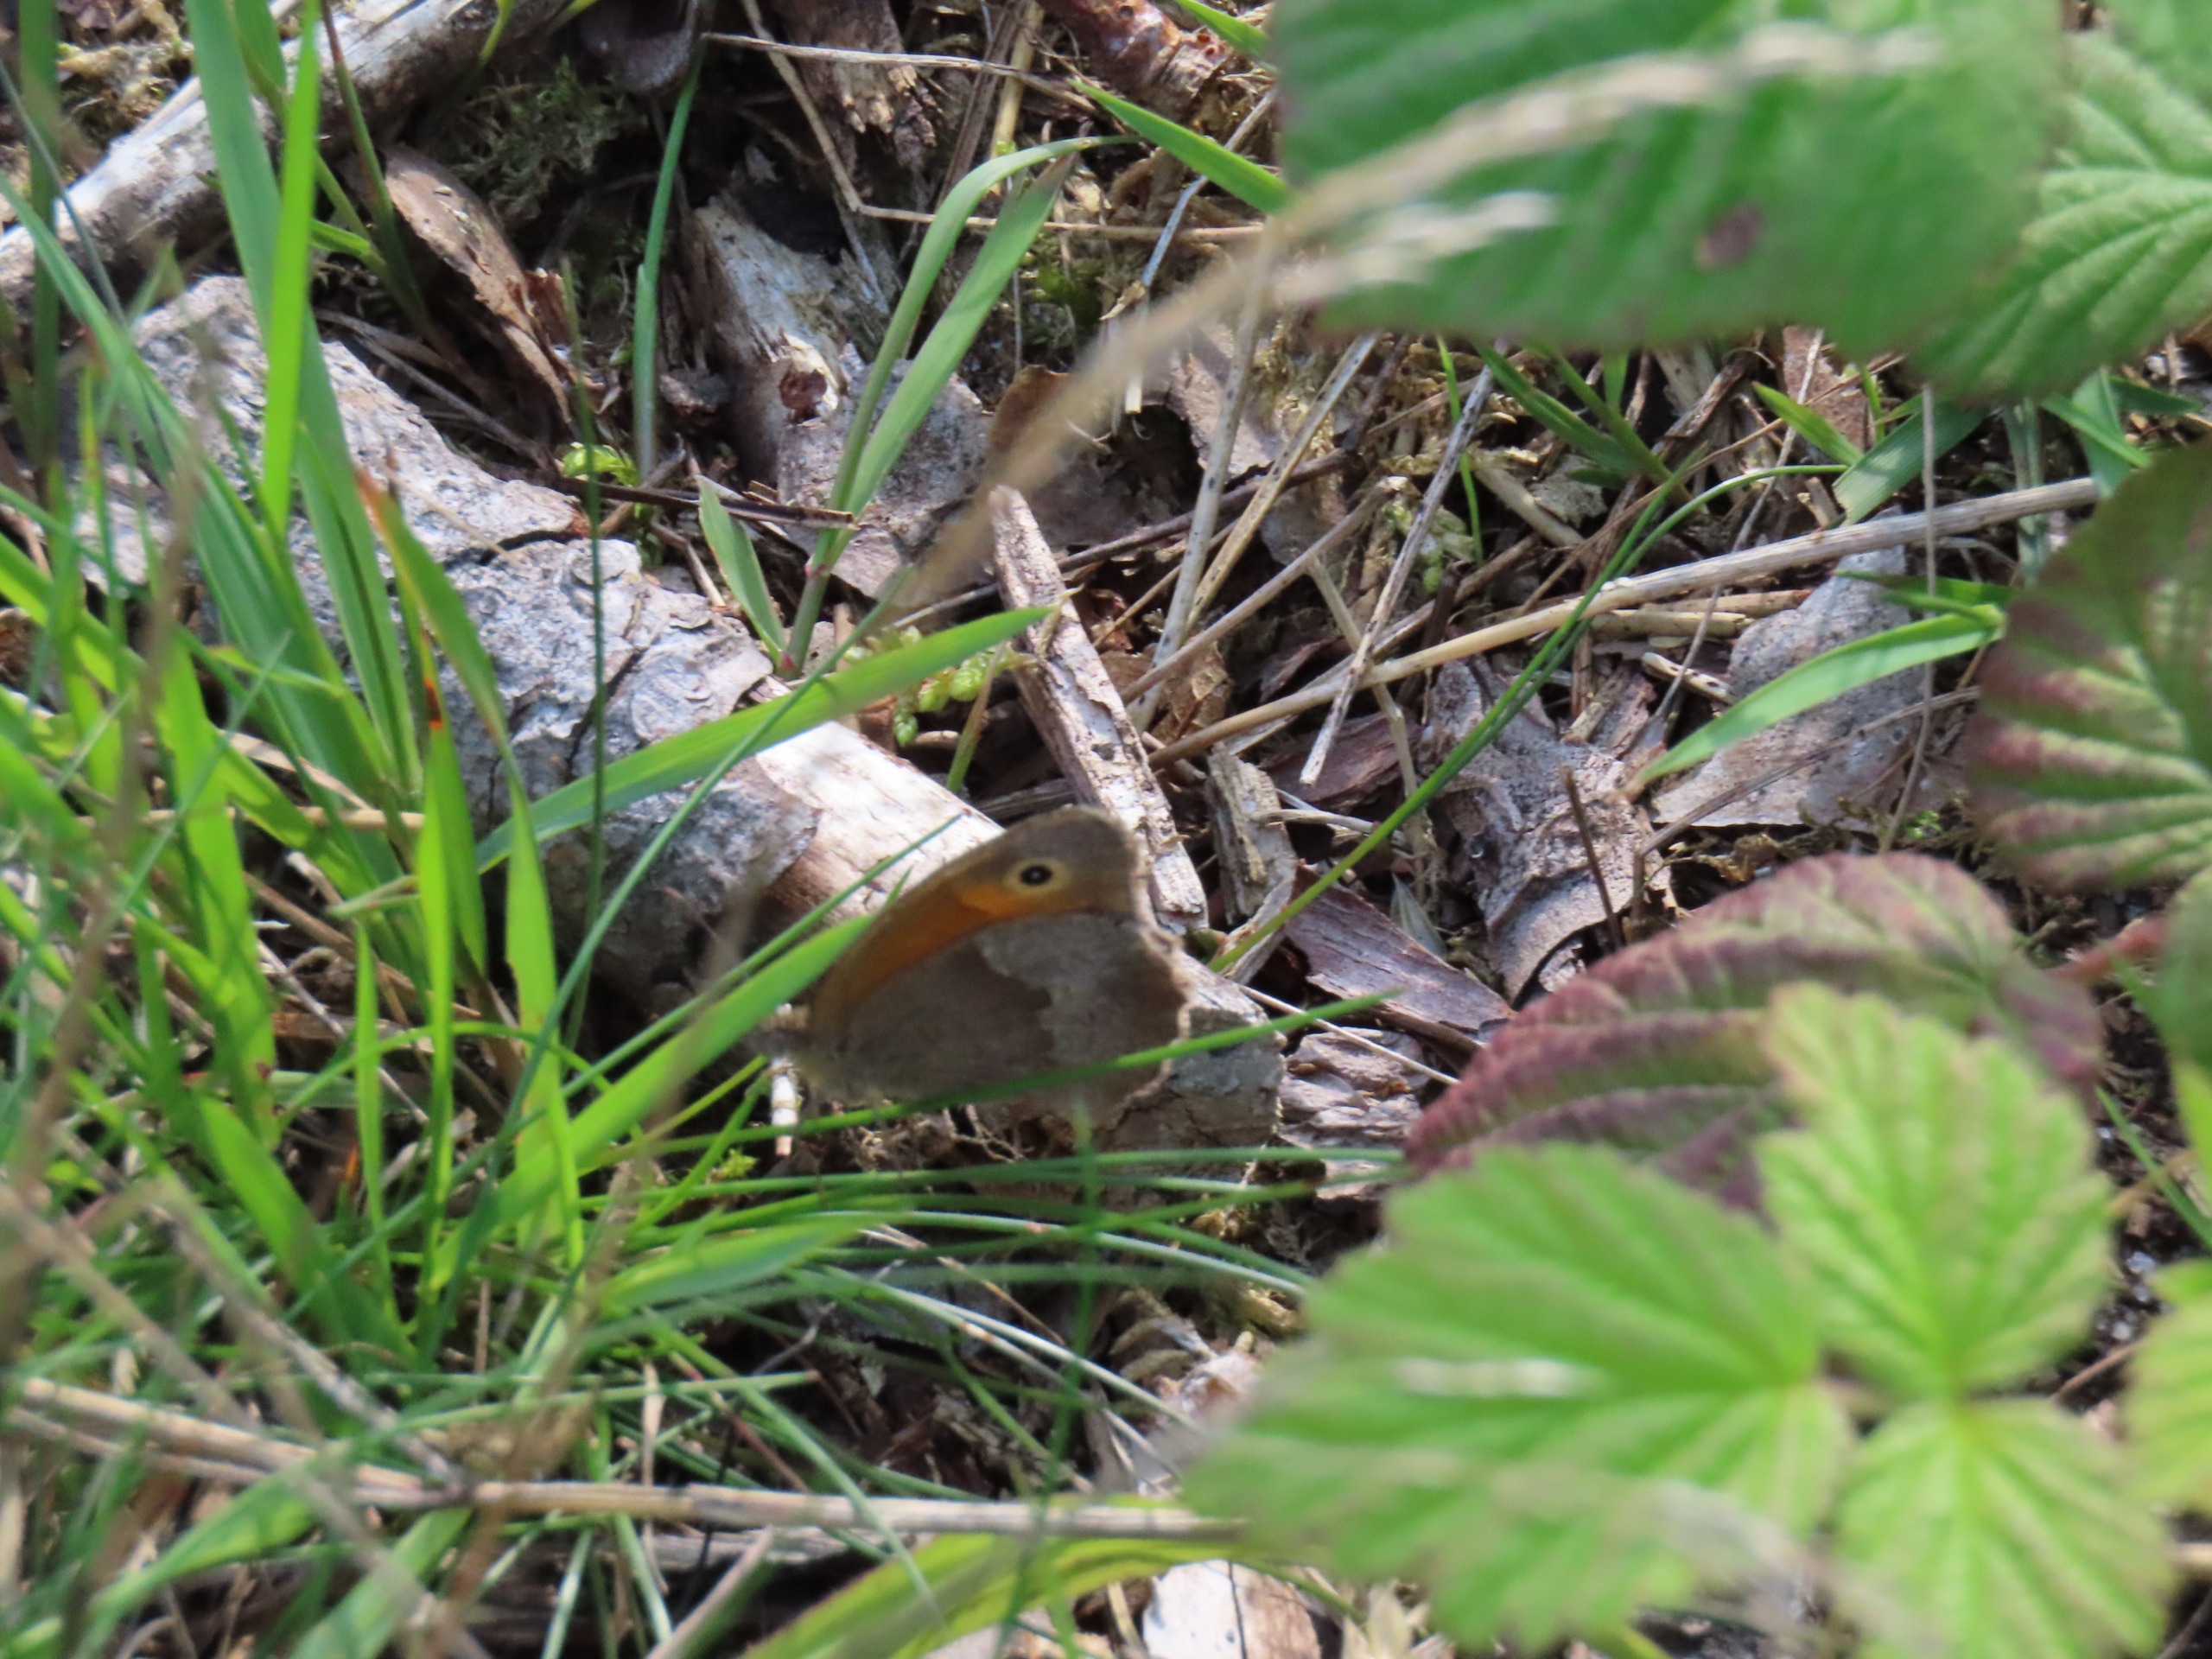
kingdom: Animalia
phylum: Arthropoda
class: Insecta
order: Lepidoptera
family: Nymphalidae
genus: Maniola
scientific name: Maniola jurtina
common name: Græsrandøje
